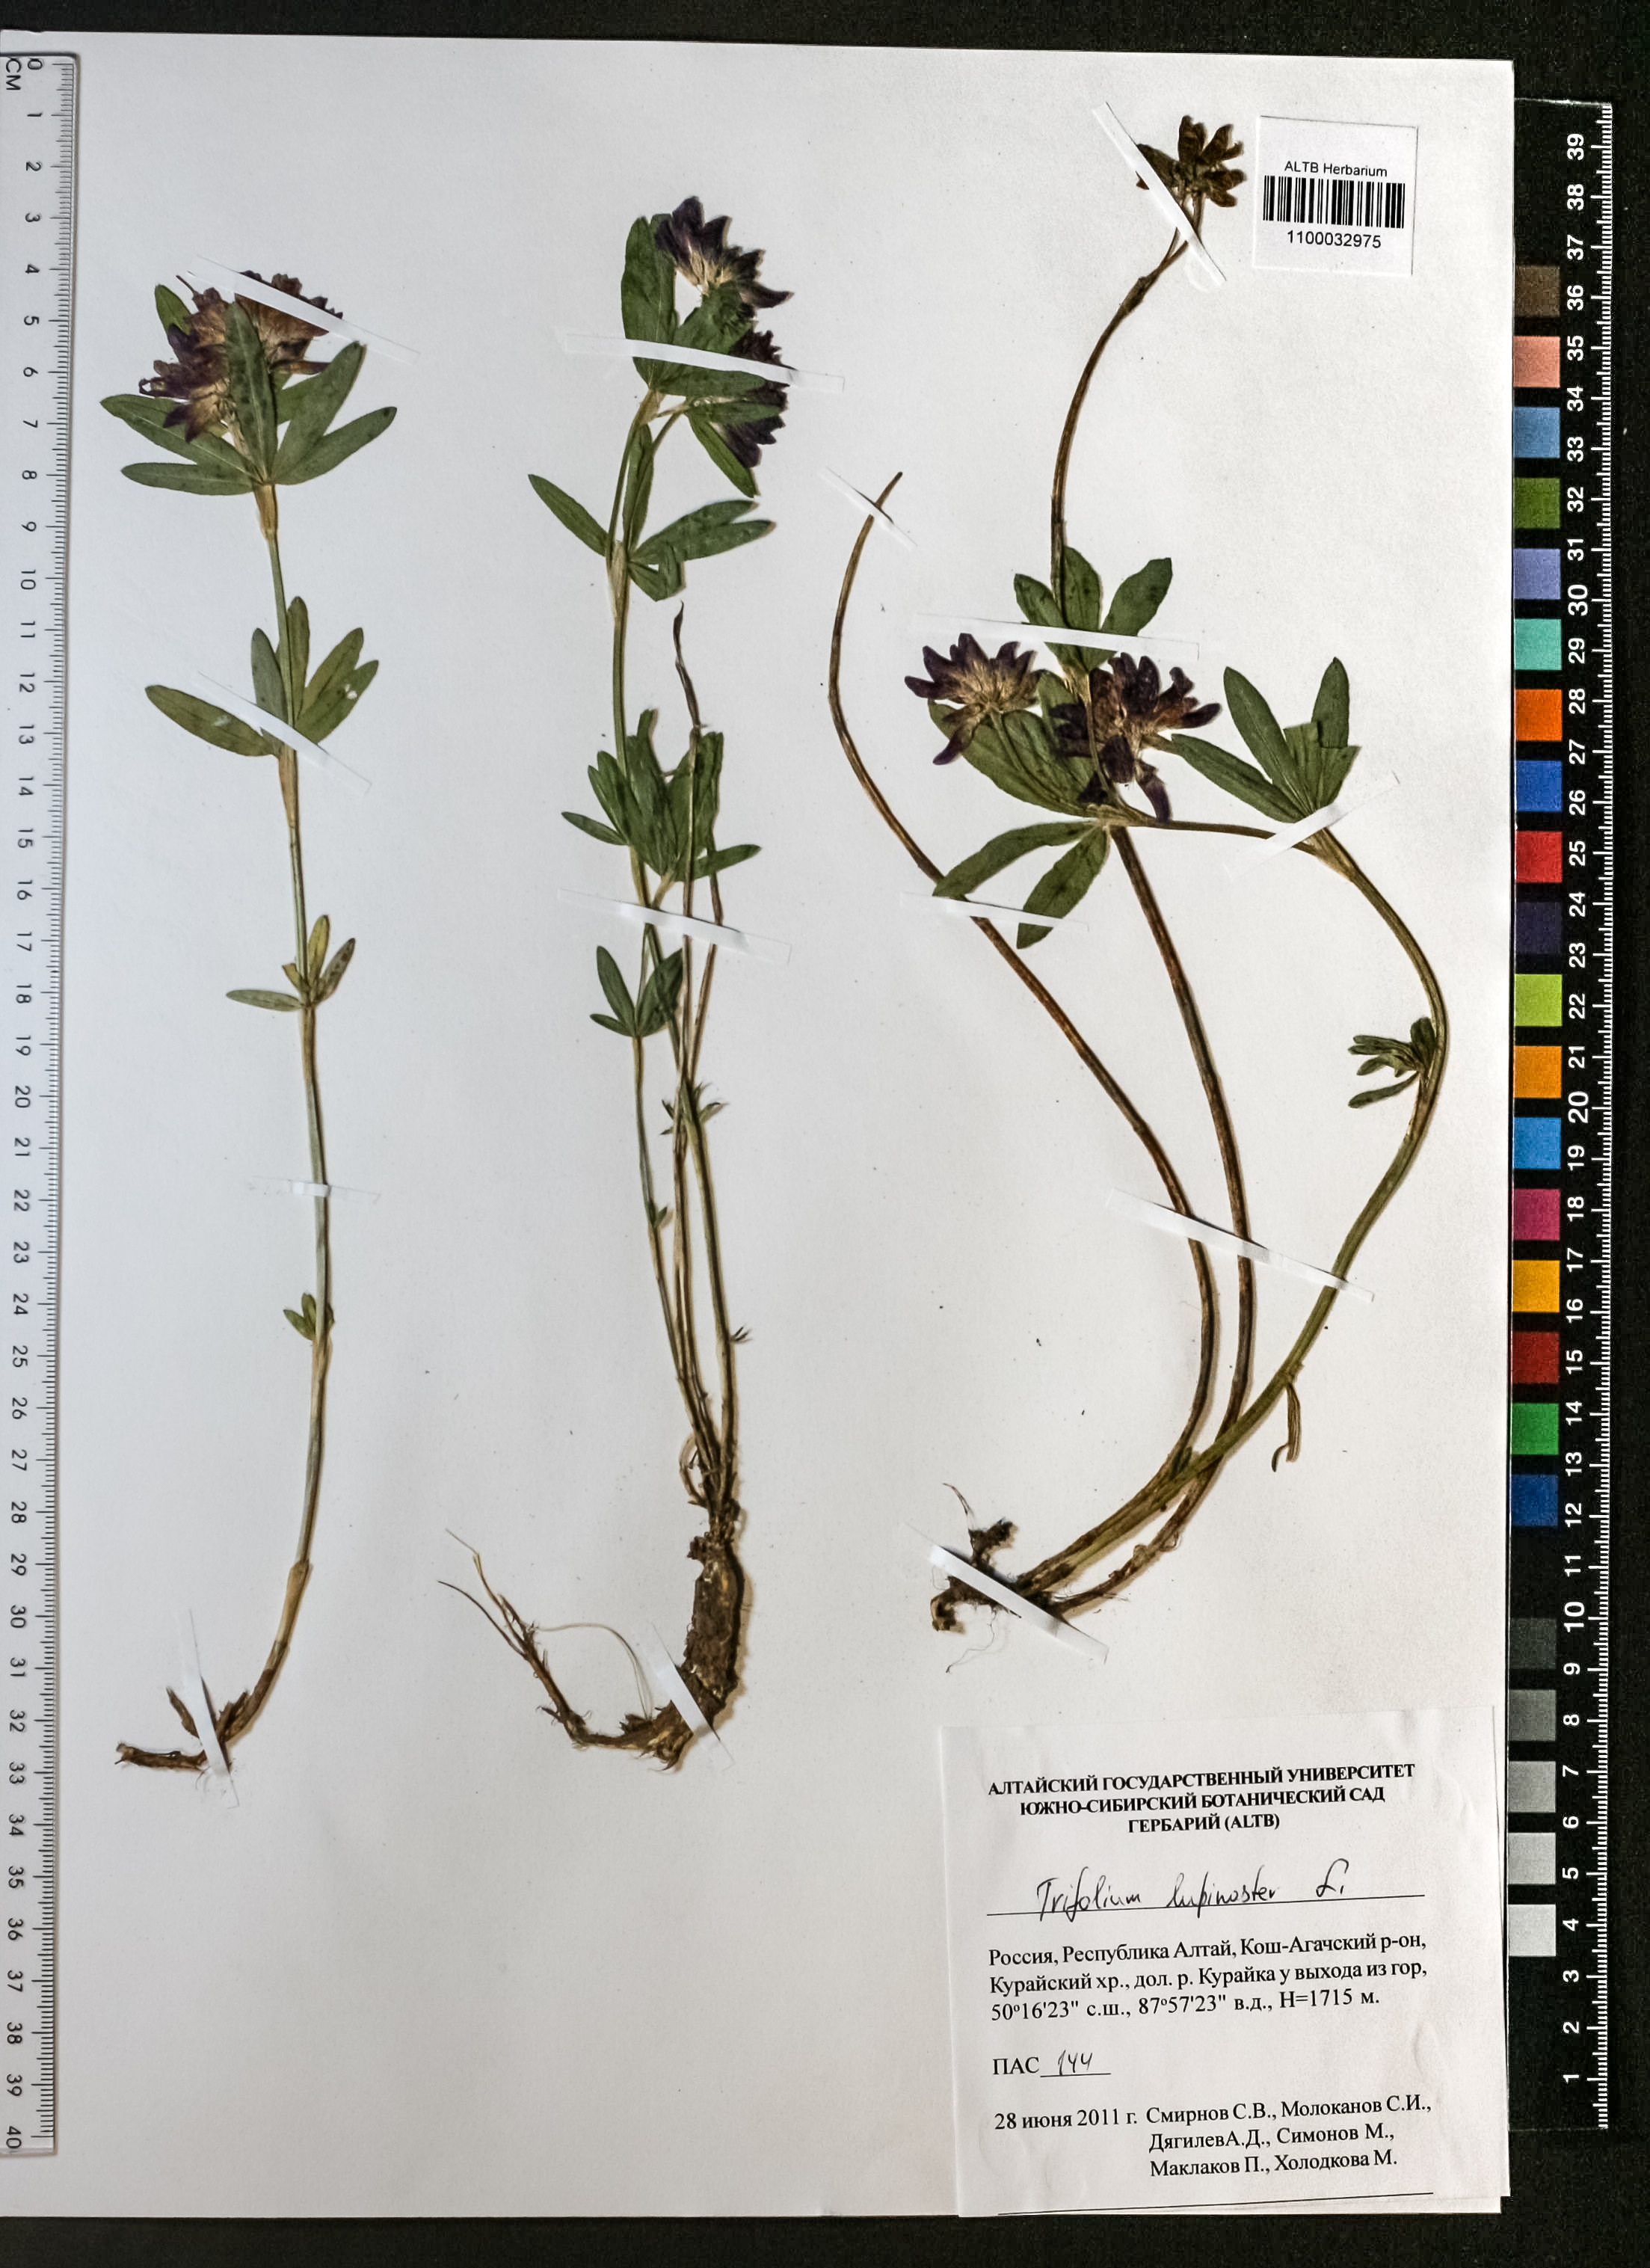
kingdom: Plantae
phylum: Tracheophyta
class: Magnoliopsida
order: Fabales
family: Fabaceae
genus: Trifolium
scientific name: Trifolium lupinaster
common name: Lupine clover
